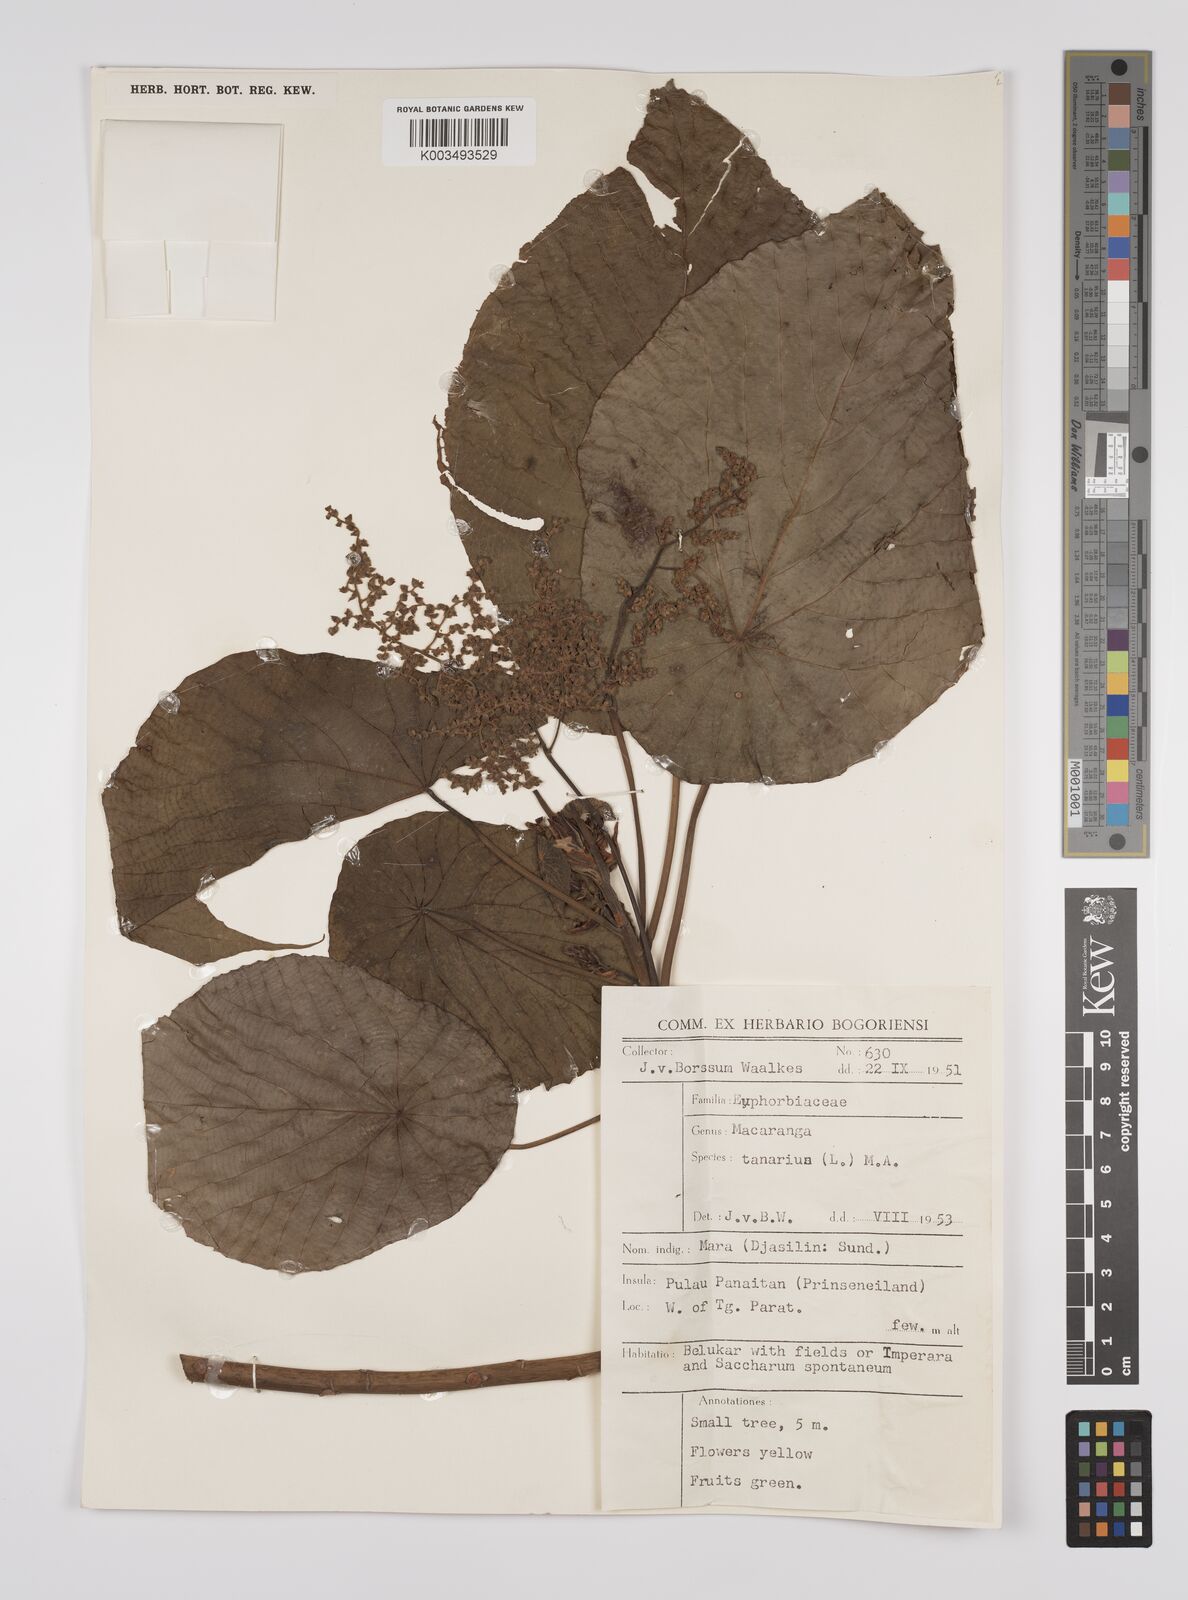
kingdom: Plantae
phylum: Tracheophyta
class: Magnoliopsida
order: Malpighiales
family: Euphorbiaceae
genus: Macaranga
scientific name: Macaranga tanarius
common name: Parasol leaf tree
